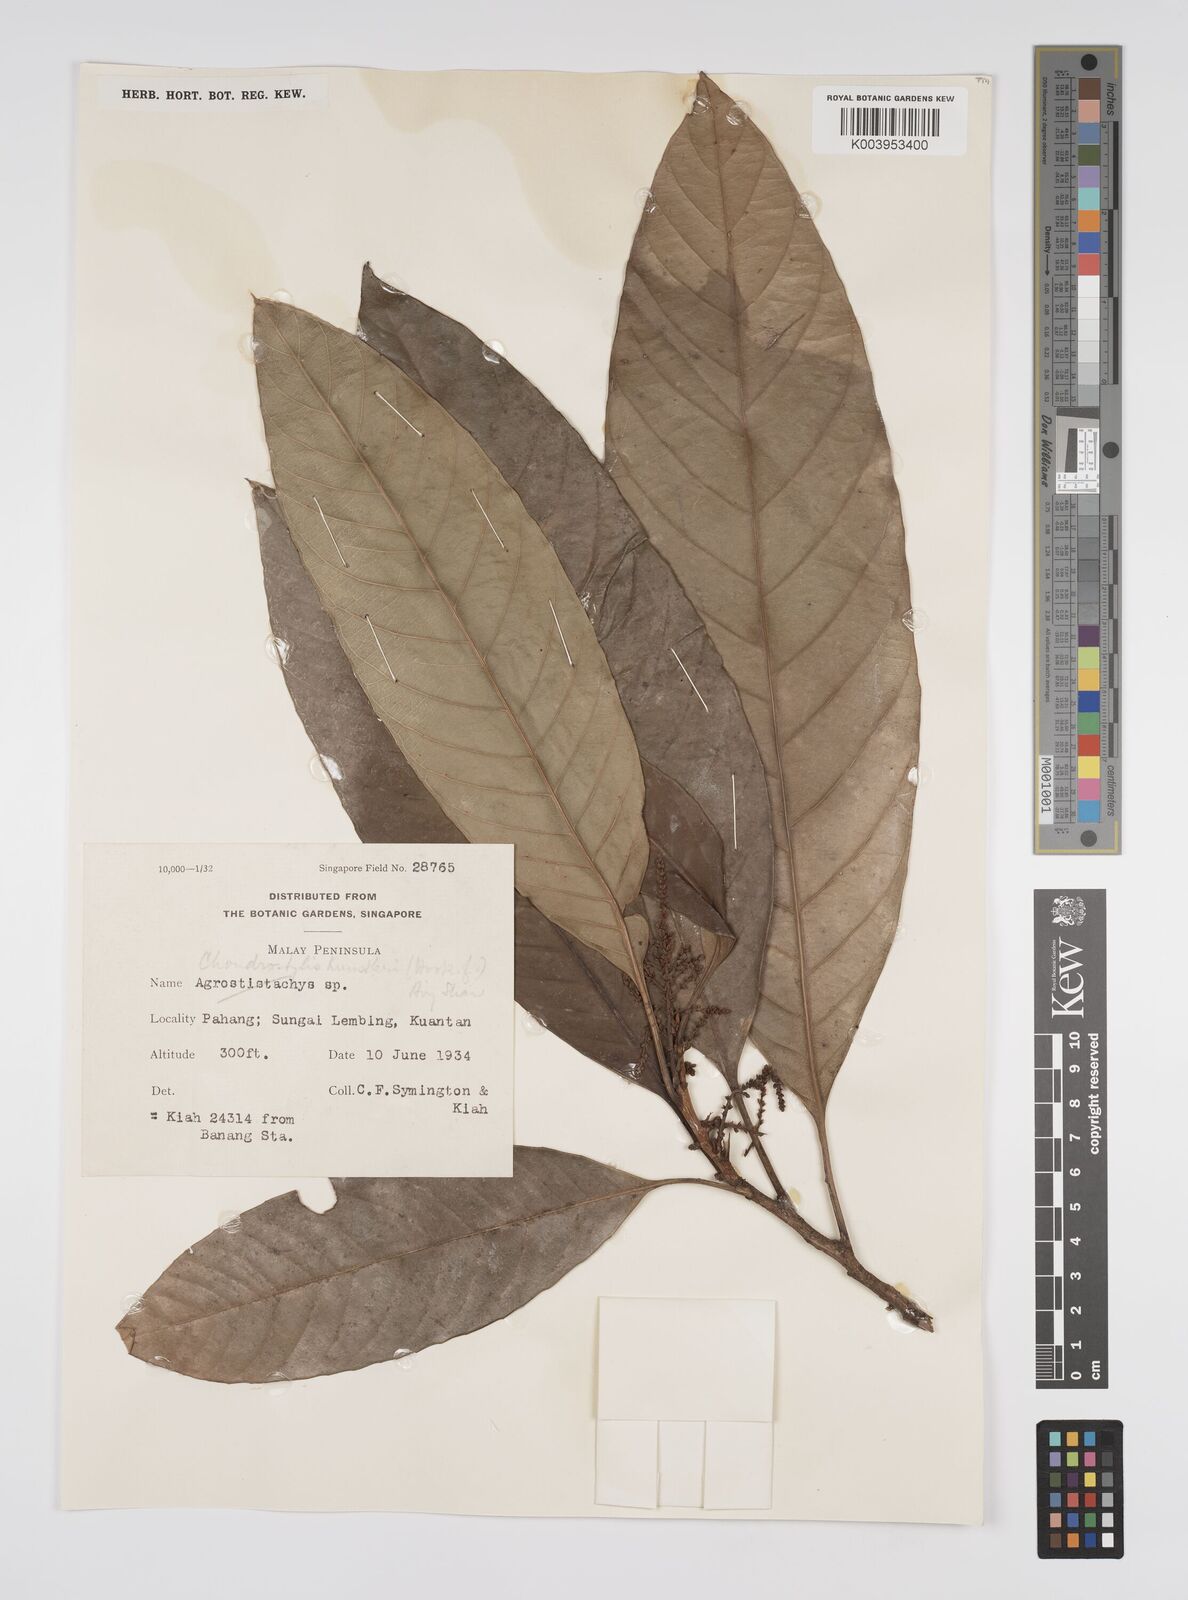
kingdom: Plantae
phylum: Tracheophyta
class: Magnoliopsida
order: Malpighiales
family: Euphorbiaceae
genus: Chondrostylis
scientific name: Chondrostylis kunstleri
